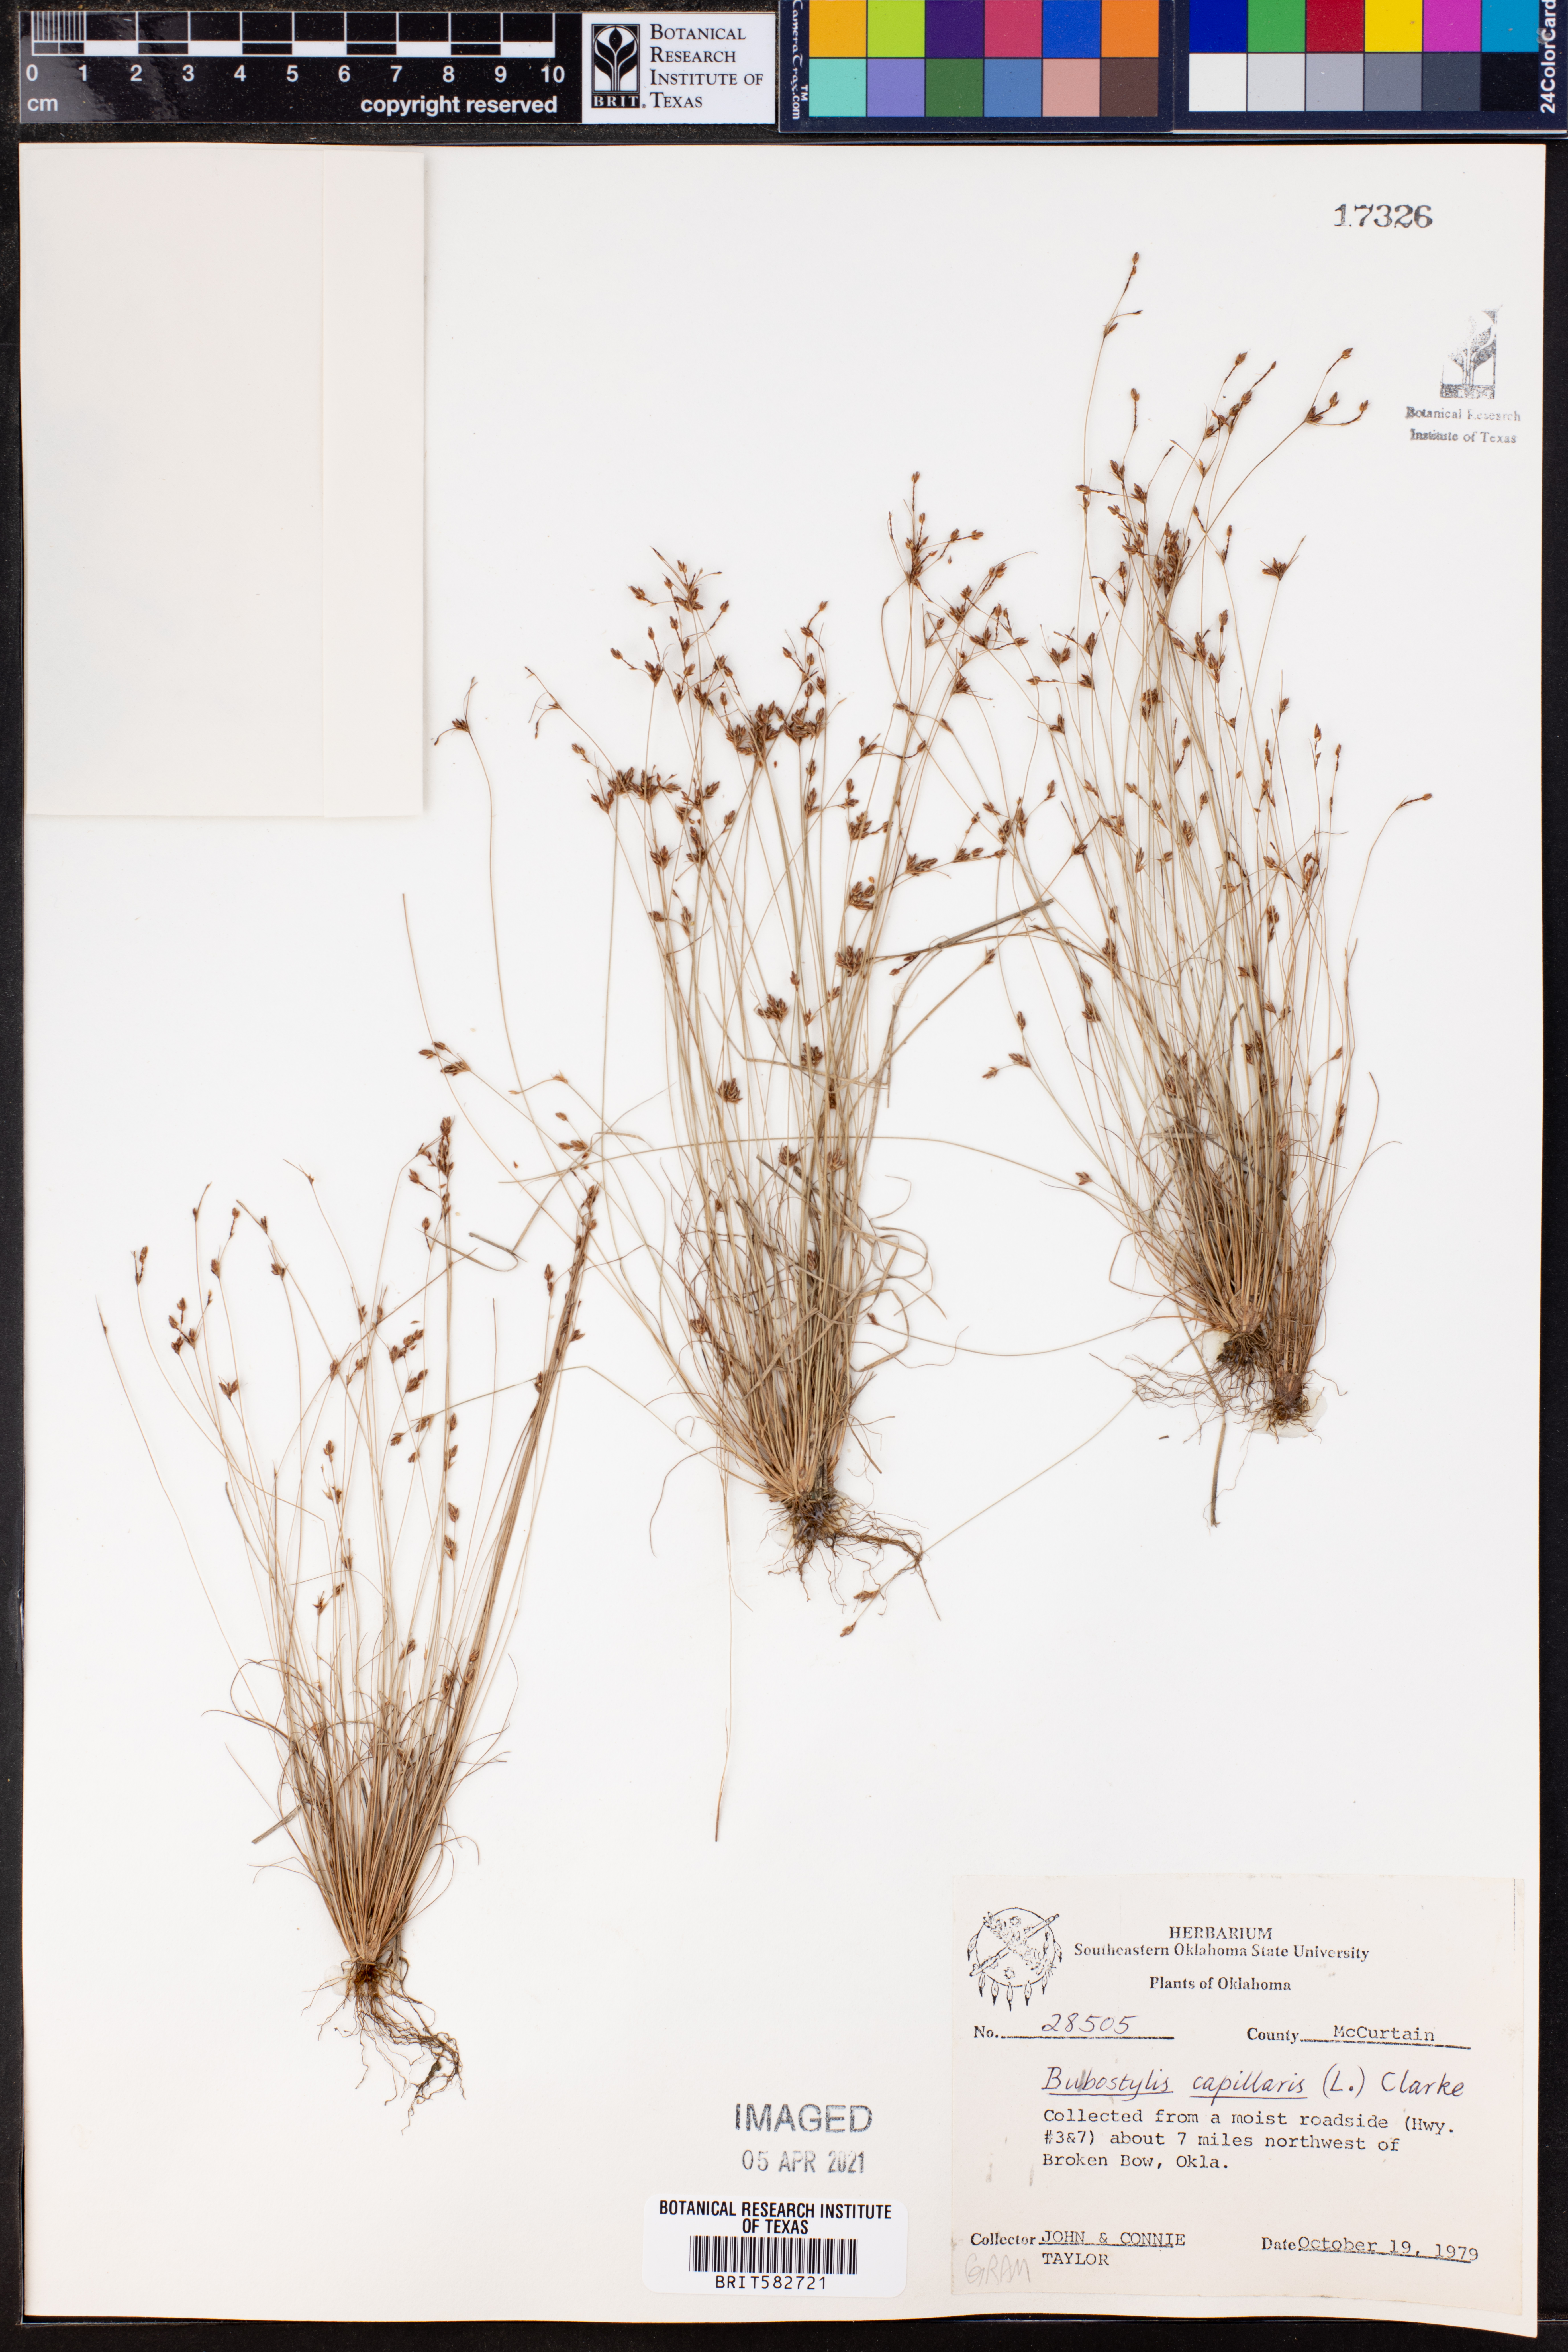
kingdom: Plantae
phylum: Tracheophyta
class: Liliopsida
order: Poales
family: Cyperaceae
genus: Bulbostylis
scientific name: Bulbostylis capillaris
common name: Densetuft hairsedge
